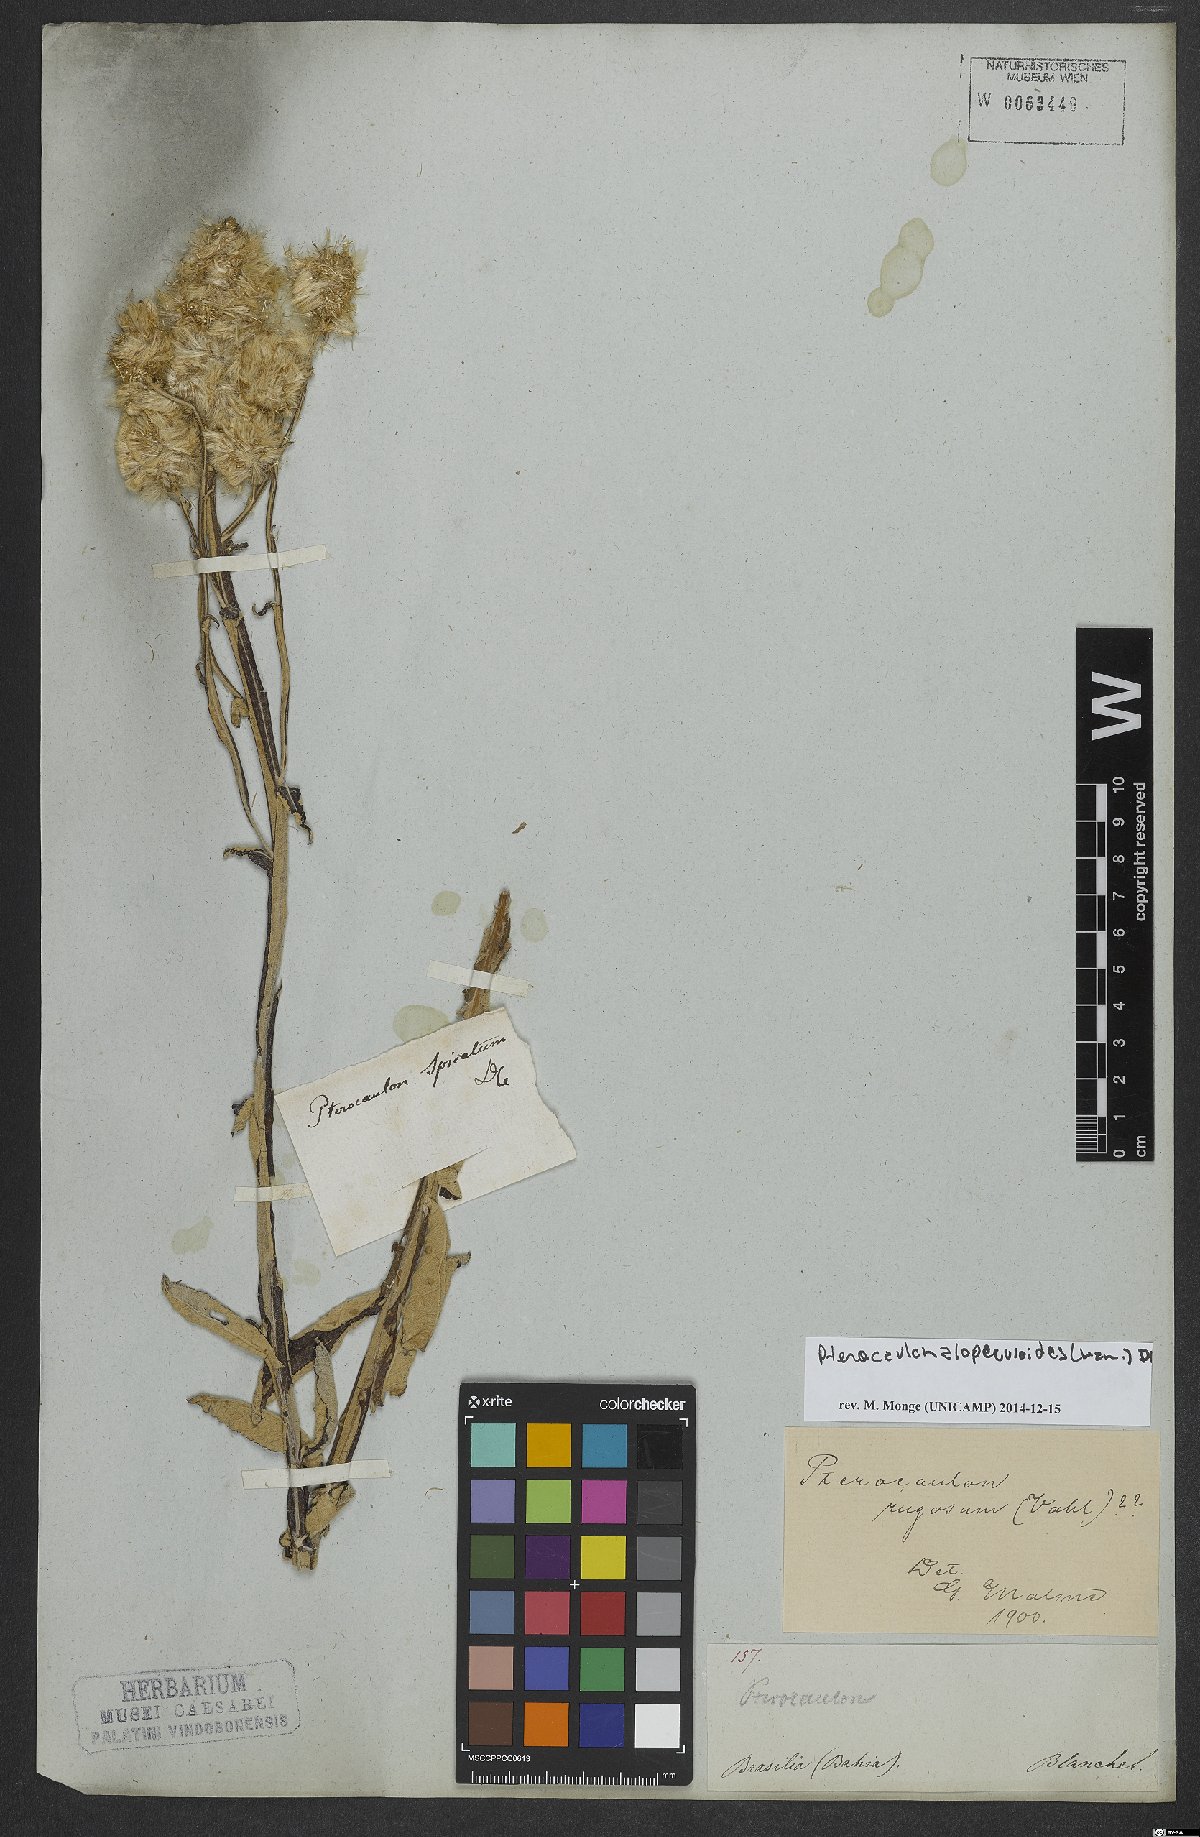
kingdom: Plantae
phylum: Tracheophyta
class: Magnoliopsida
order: Asterales
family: Asteraceae
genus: Pterocaulon
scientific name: Pterocaulon alopecuroides
